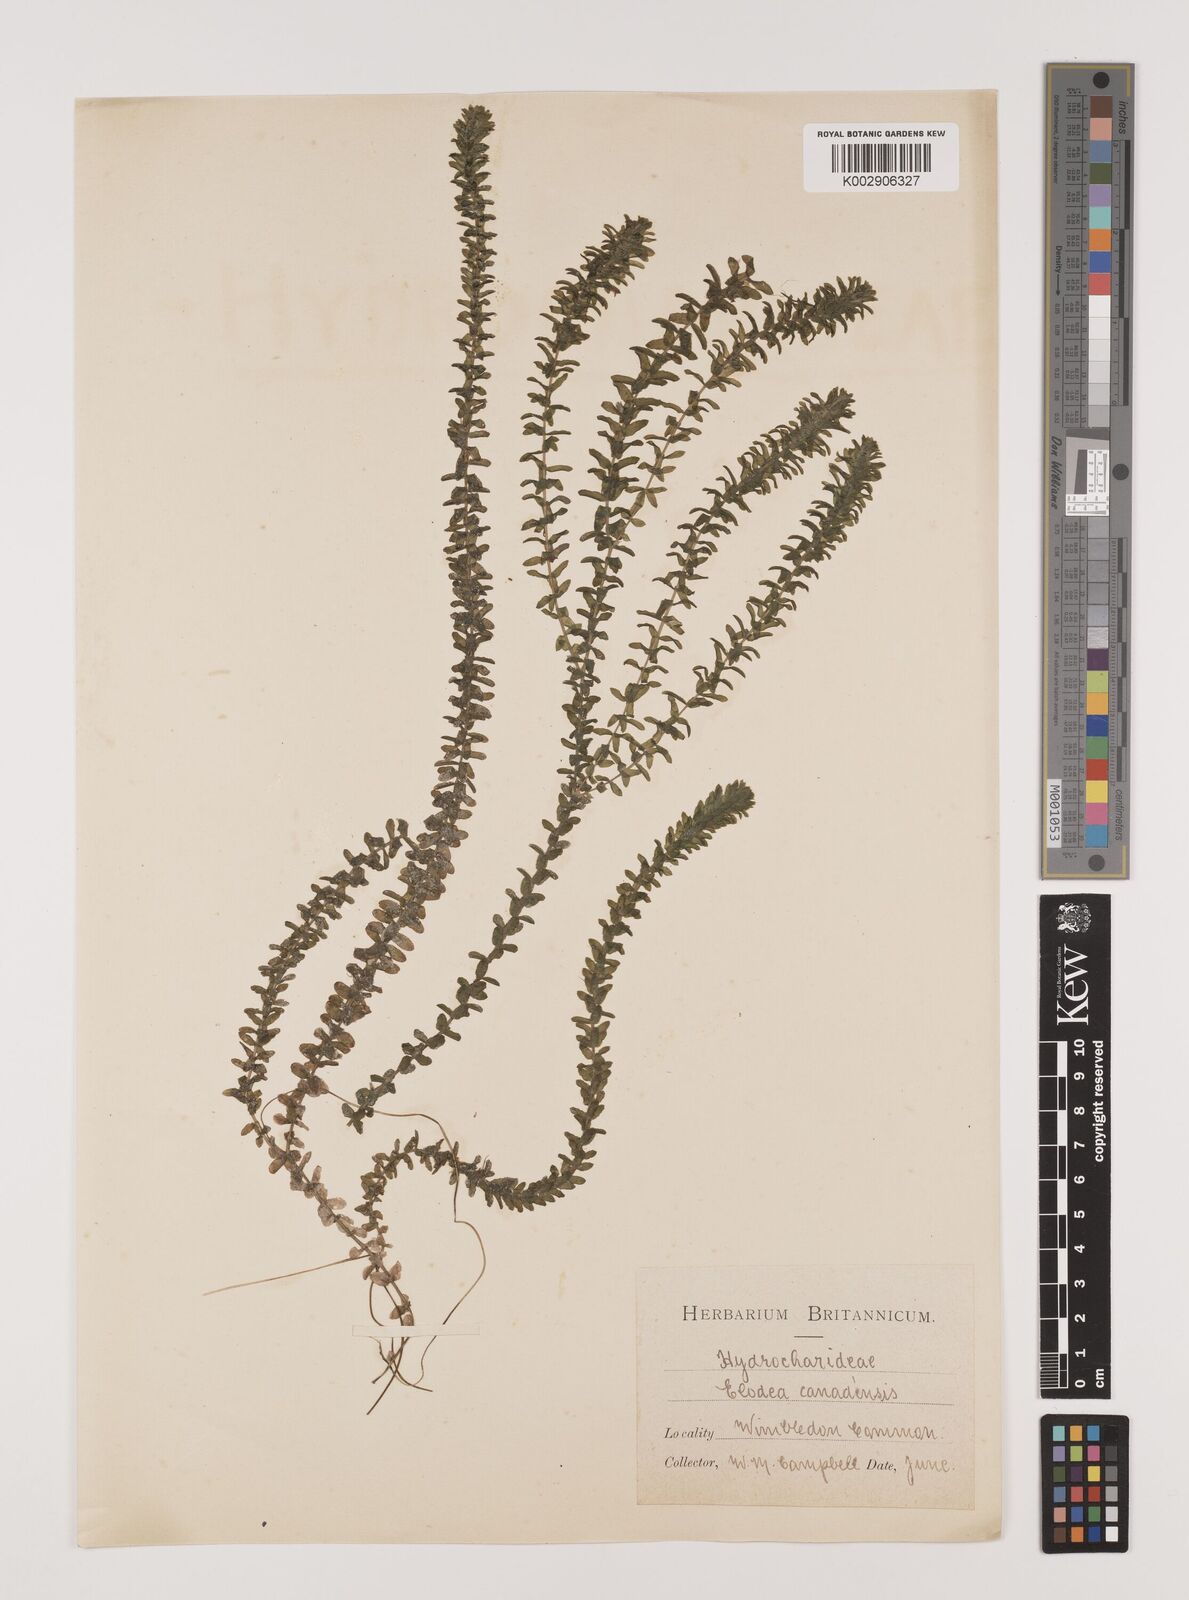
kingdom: Plantae
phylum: Tracheophyta
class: Liliopsida
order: Alismatales
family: Hydrocharitaceae
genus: Elodea
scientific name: Elodea canadensis
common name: Canadian waterweed
